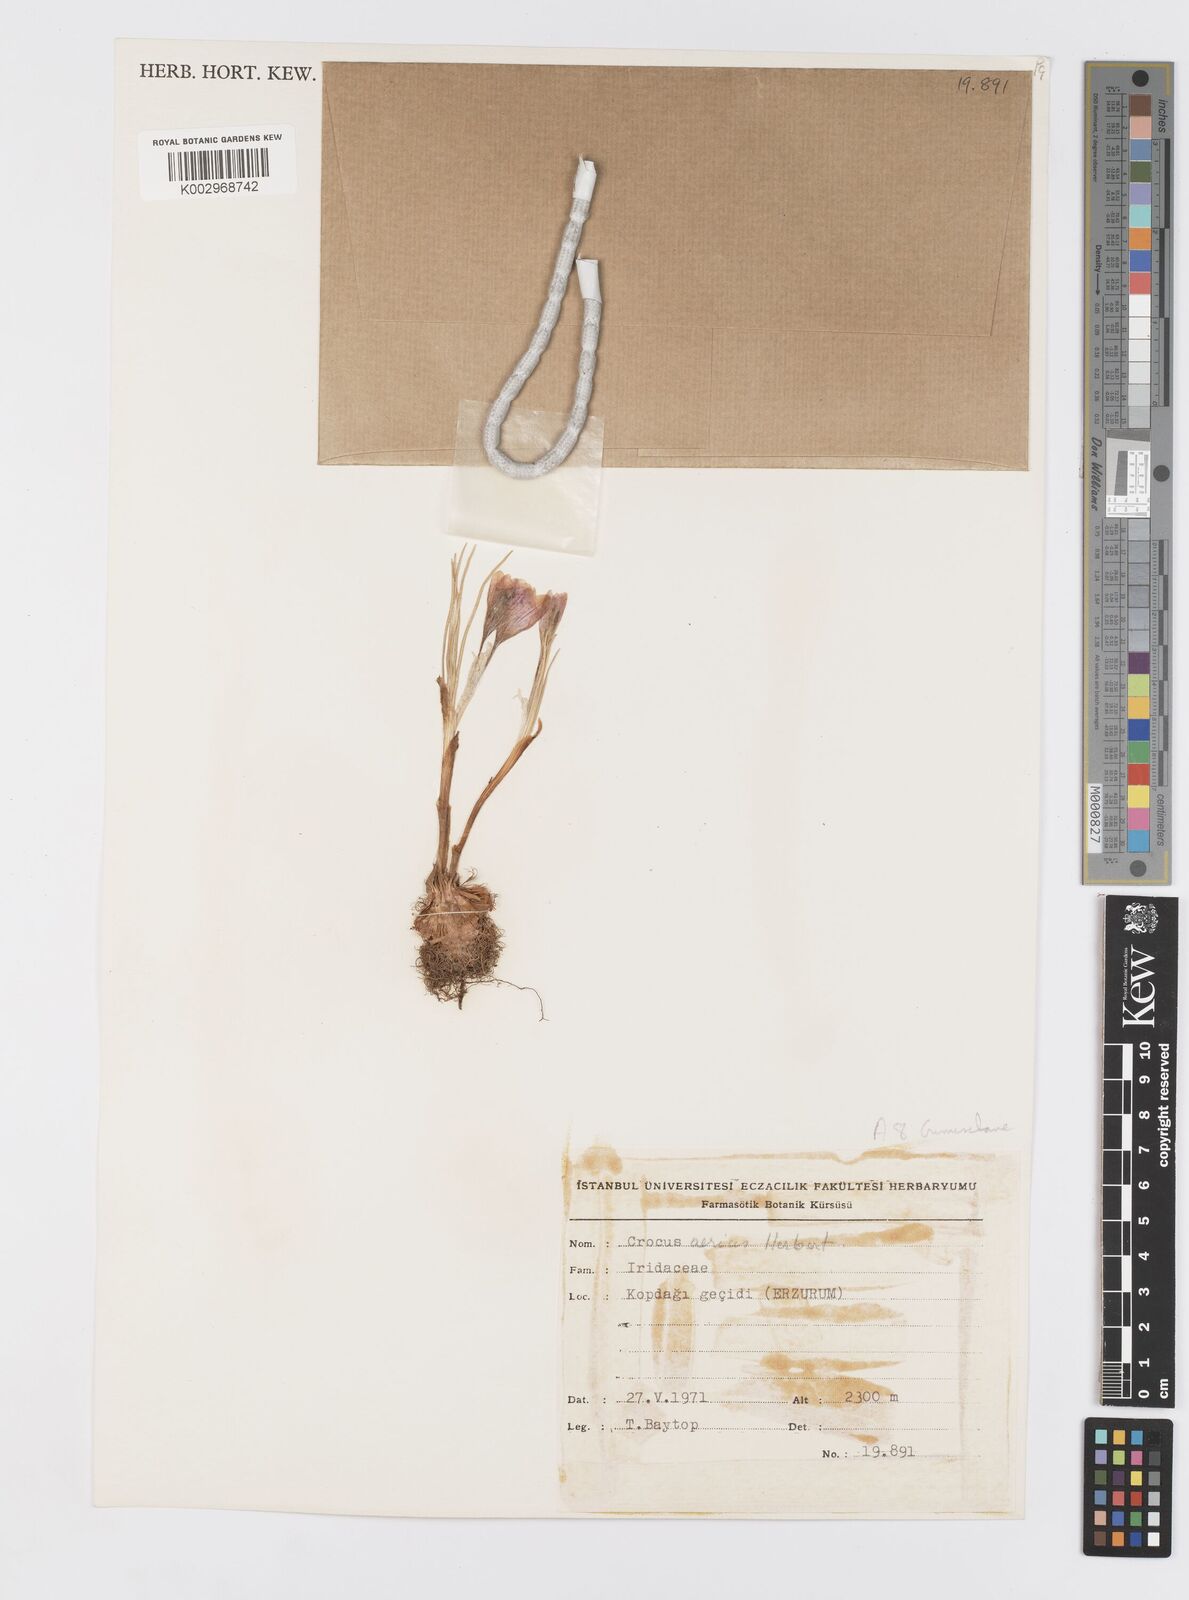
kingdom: Plantae
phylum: Tracheophyta
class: Liliopsida
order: Asparagales
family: Iridaceae
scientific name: Iridaceae
